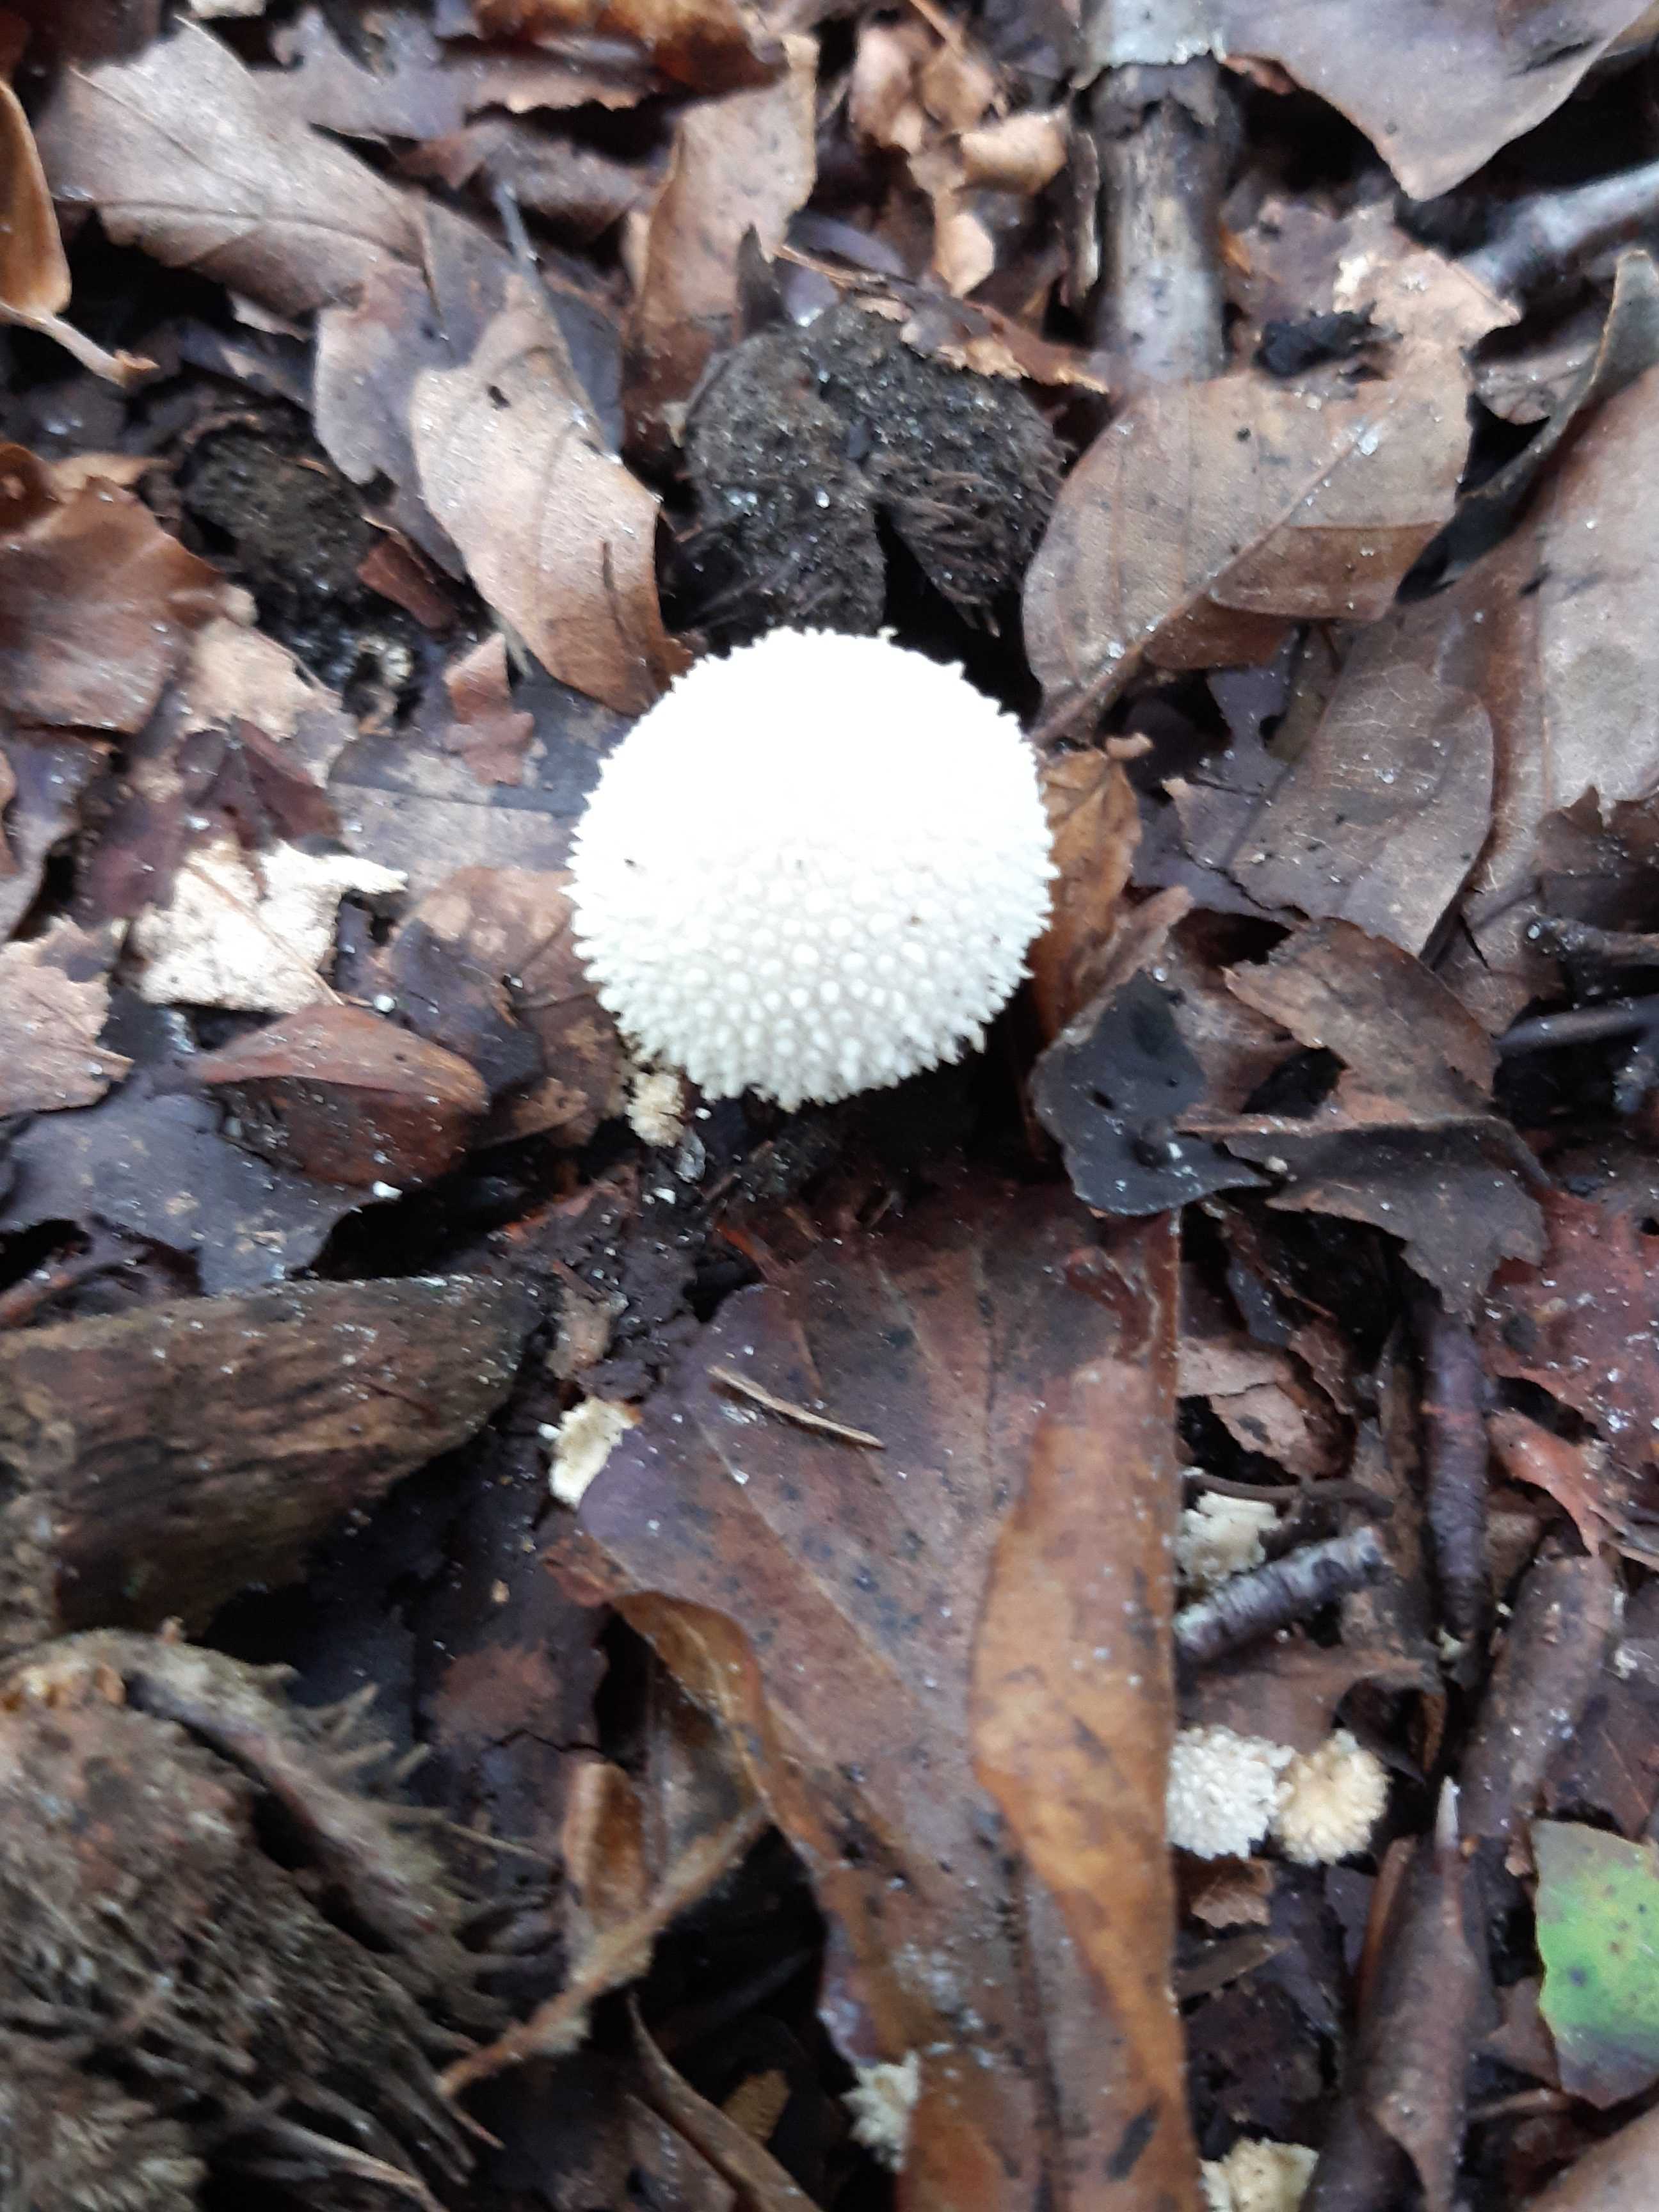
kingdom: Fungi
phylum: Basidiomycota
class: Agaricomycetes
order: Agaricales
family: Lycoperdaceae
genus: Lycoperdon
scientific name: Lycoperdon perlatum
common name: krystal-støvbold
